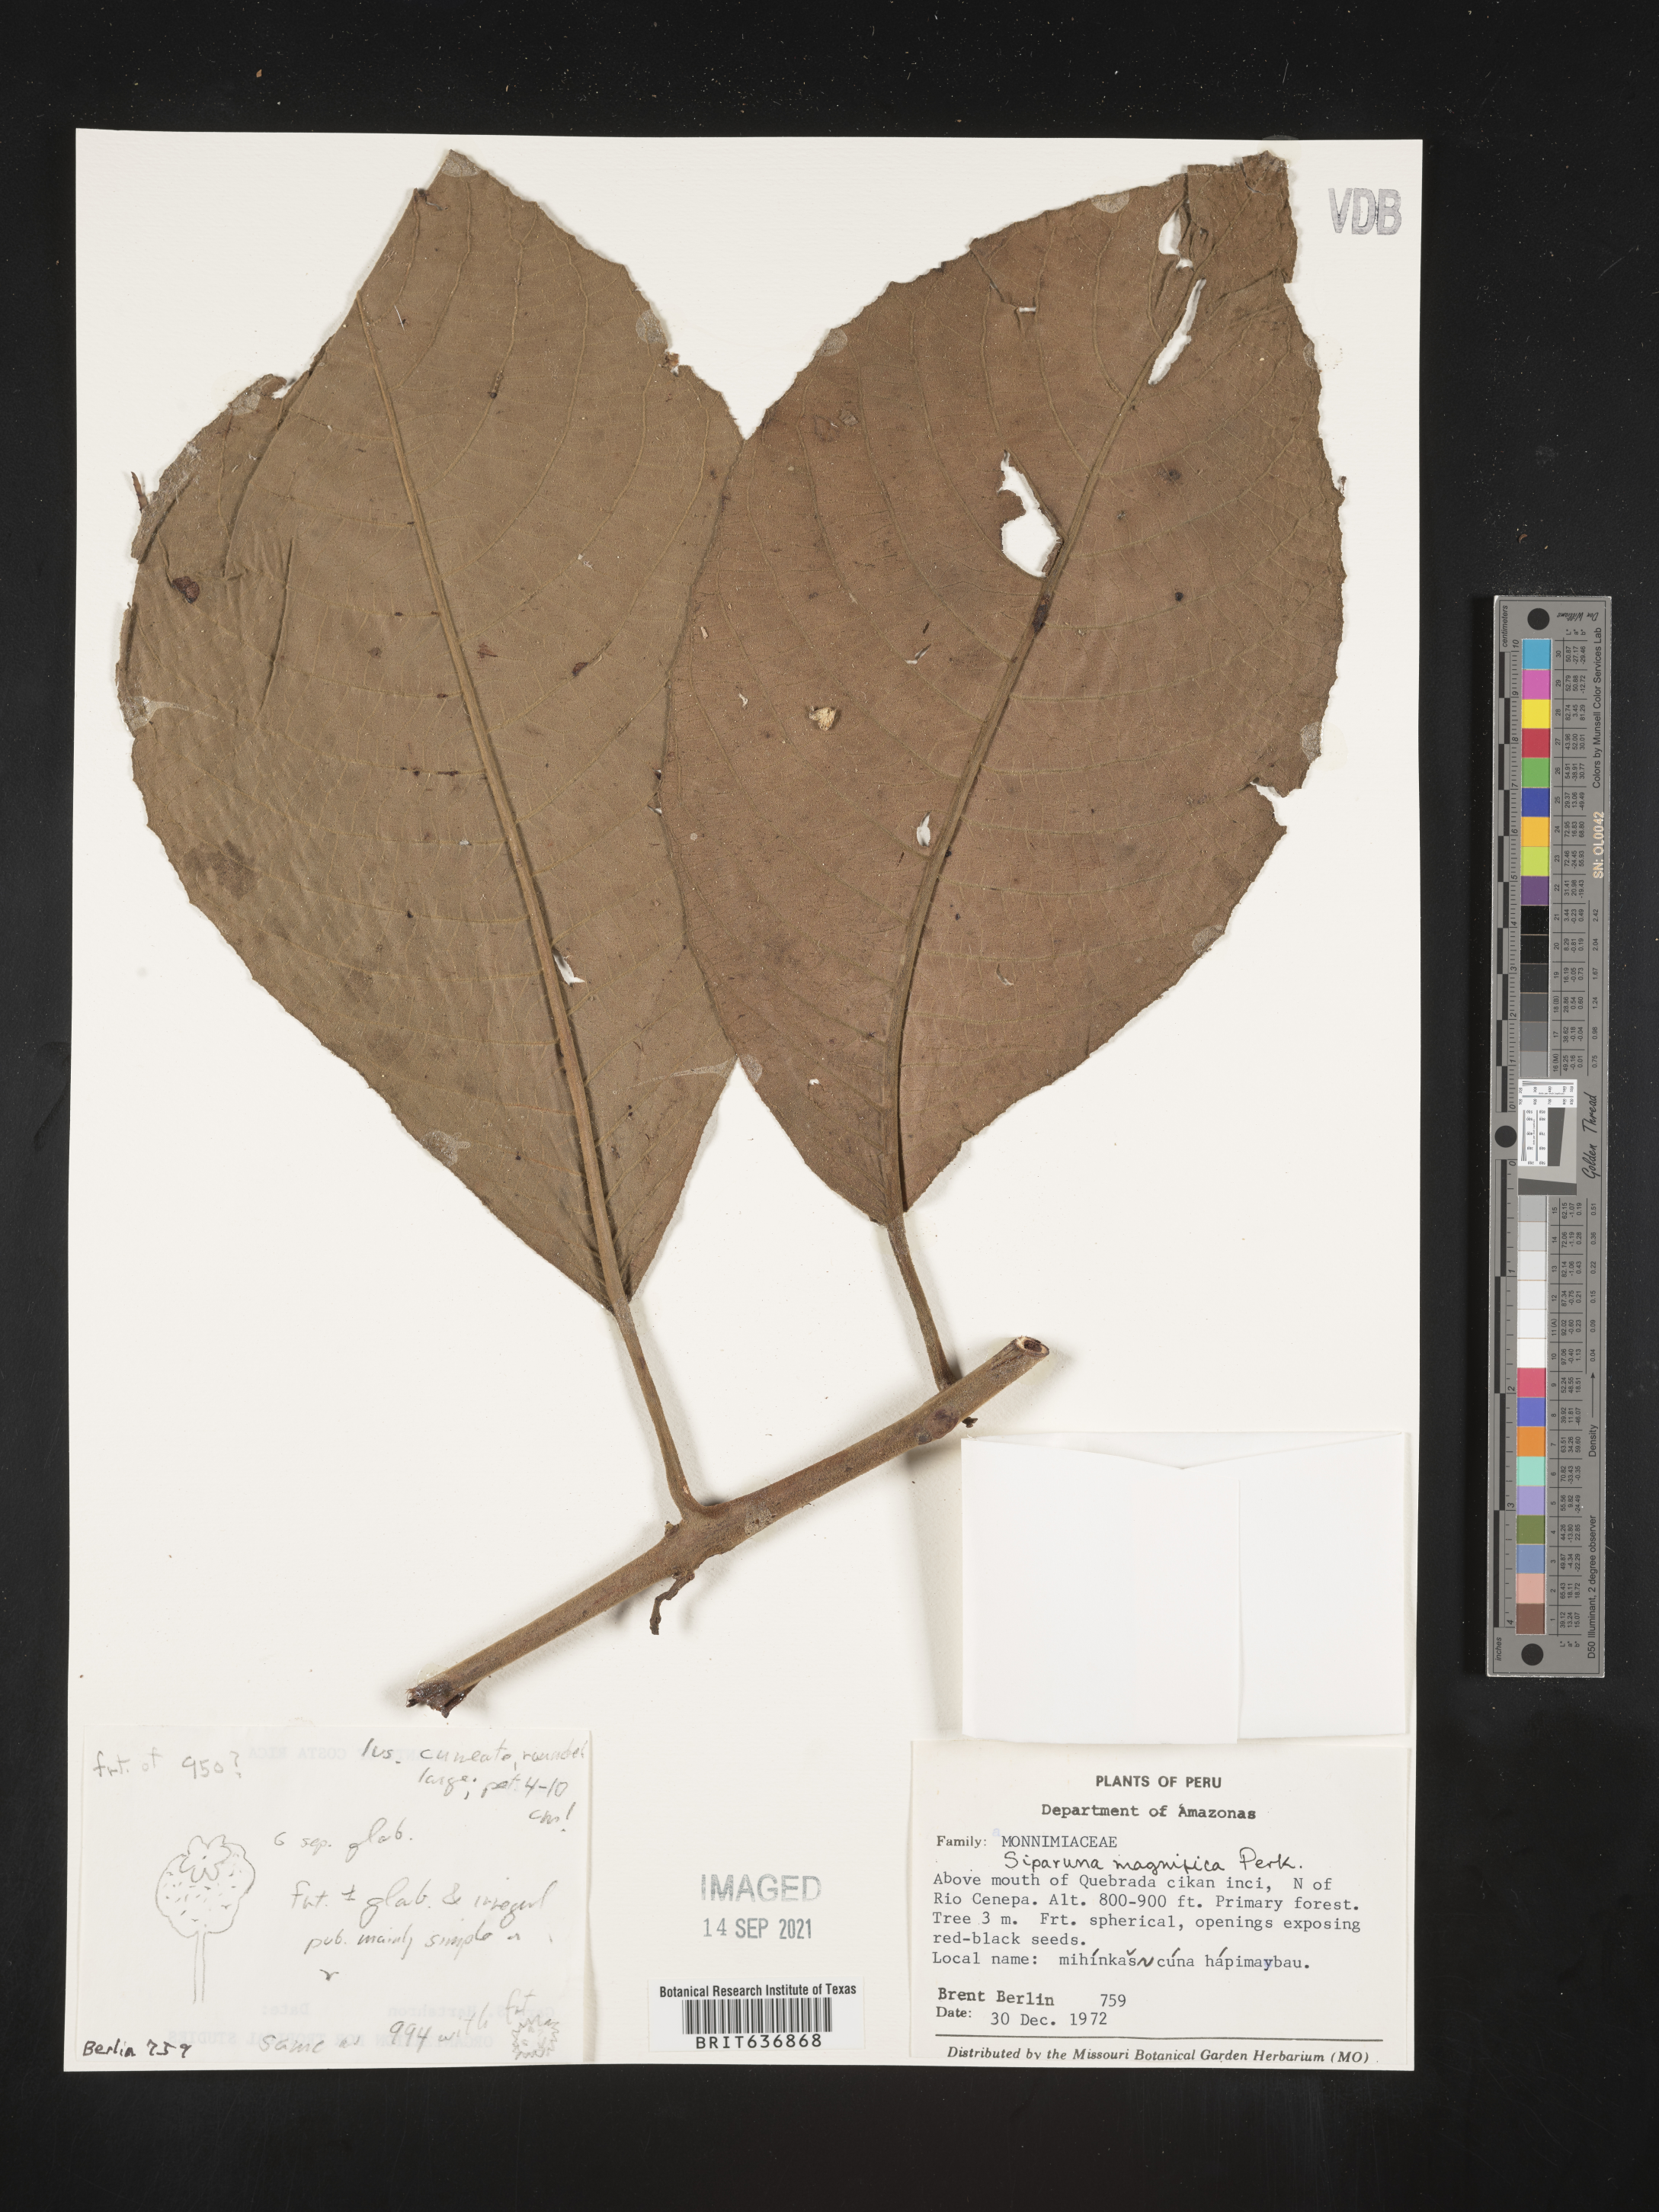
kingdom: Plantae
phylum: Tracheophyta
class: Magnoliopsida
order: Laurales
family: Siparunaceae
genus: Siparuna
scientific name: Siparuna
